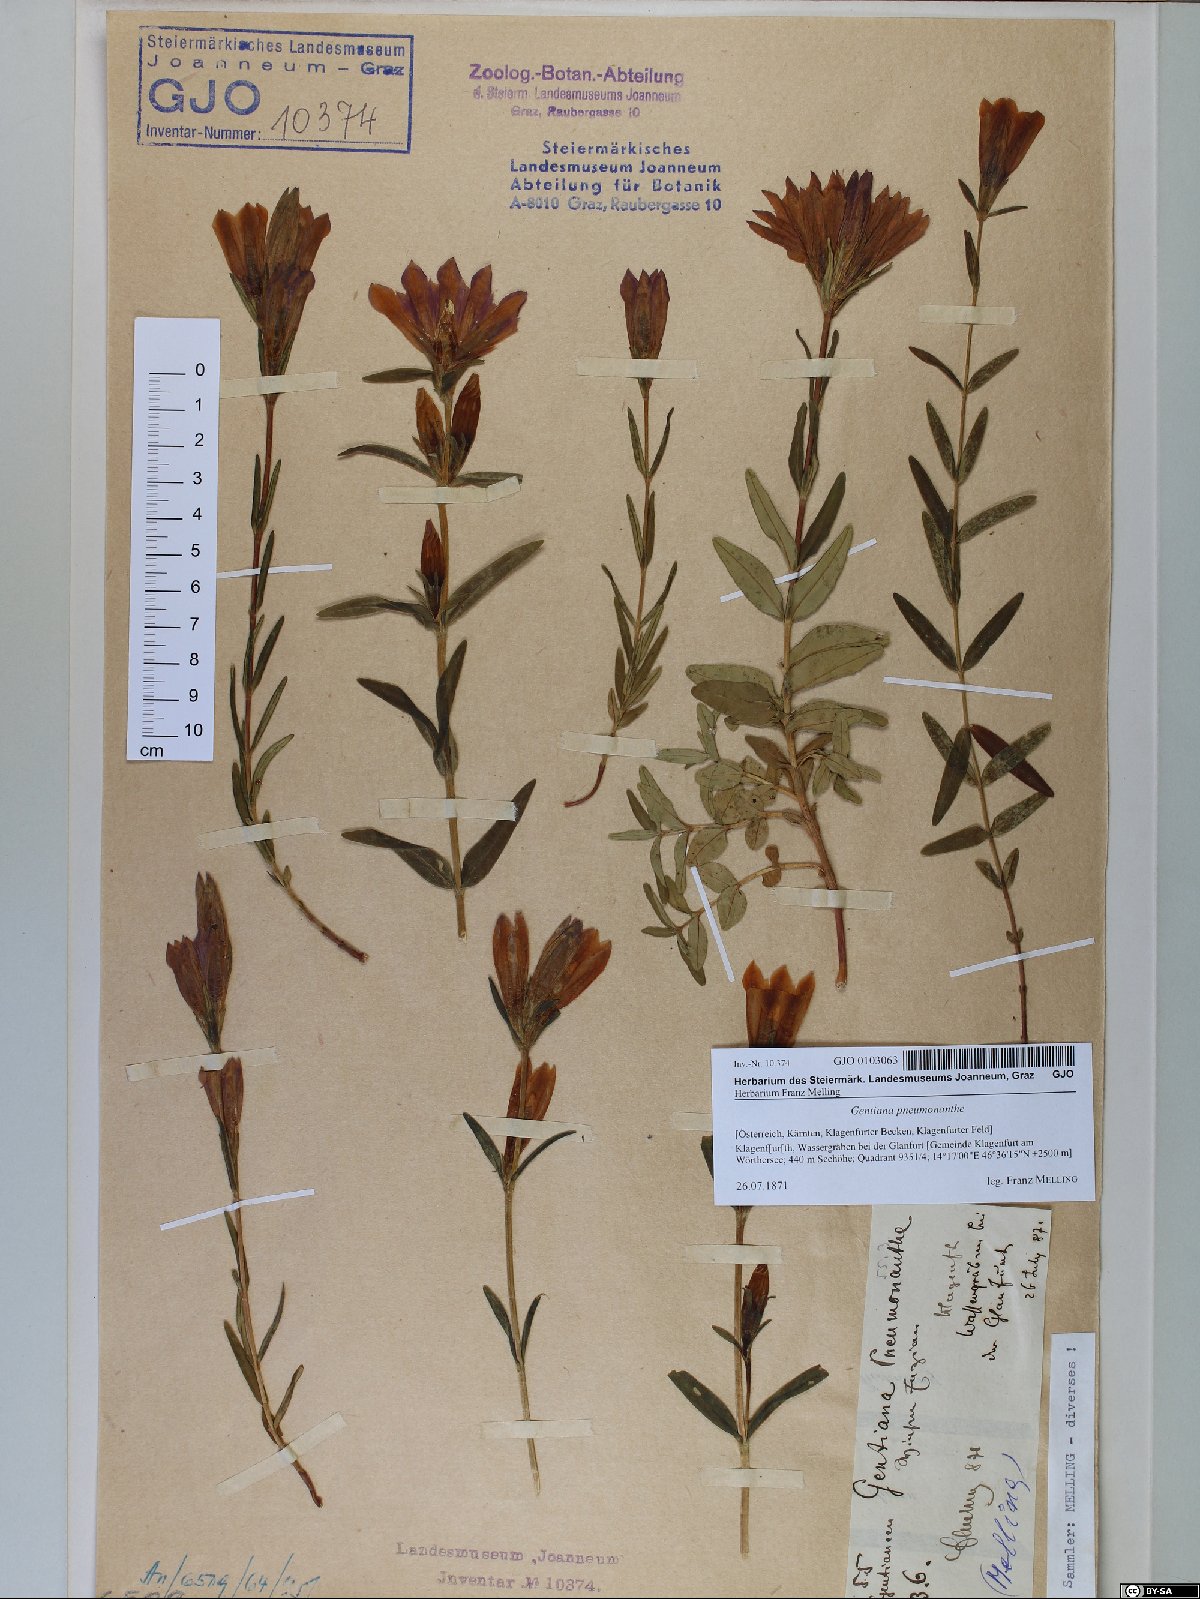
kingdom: Plantae
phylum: Tracheophyta
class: Magnoliopsida
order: Gentianales
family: Gentianaceae
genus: Gentiana
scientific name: Gentiana pneumonanthe
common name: Marsh gentian
